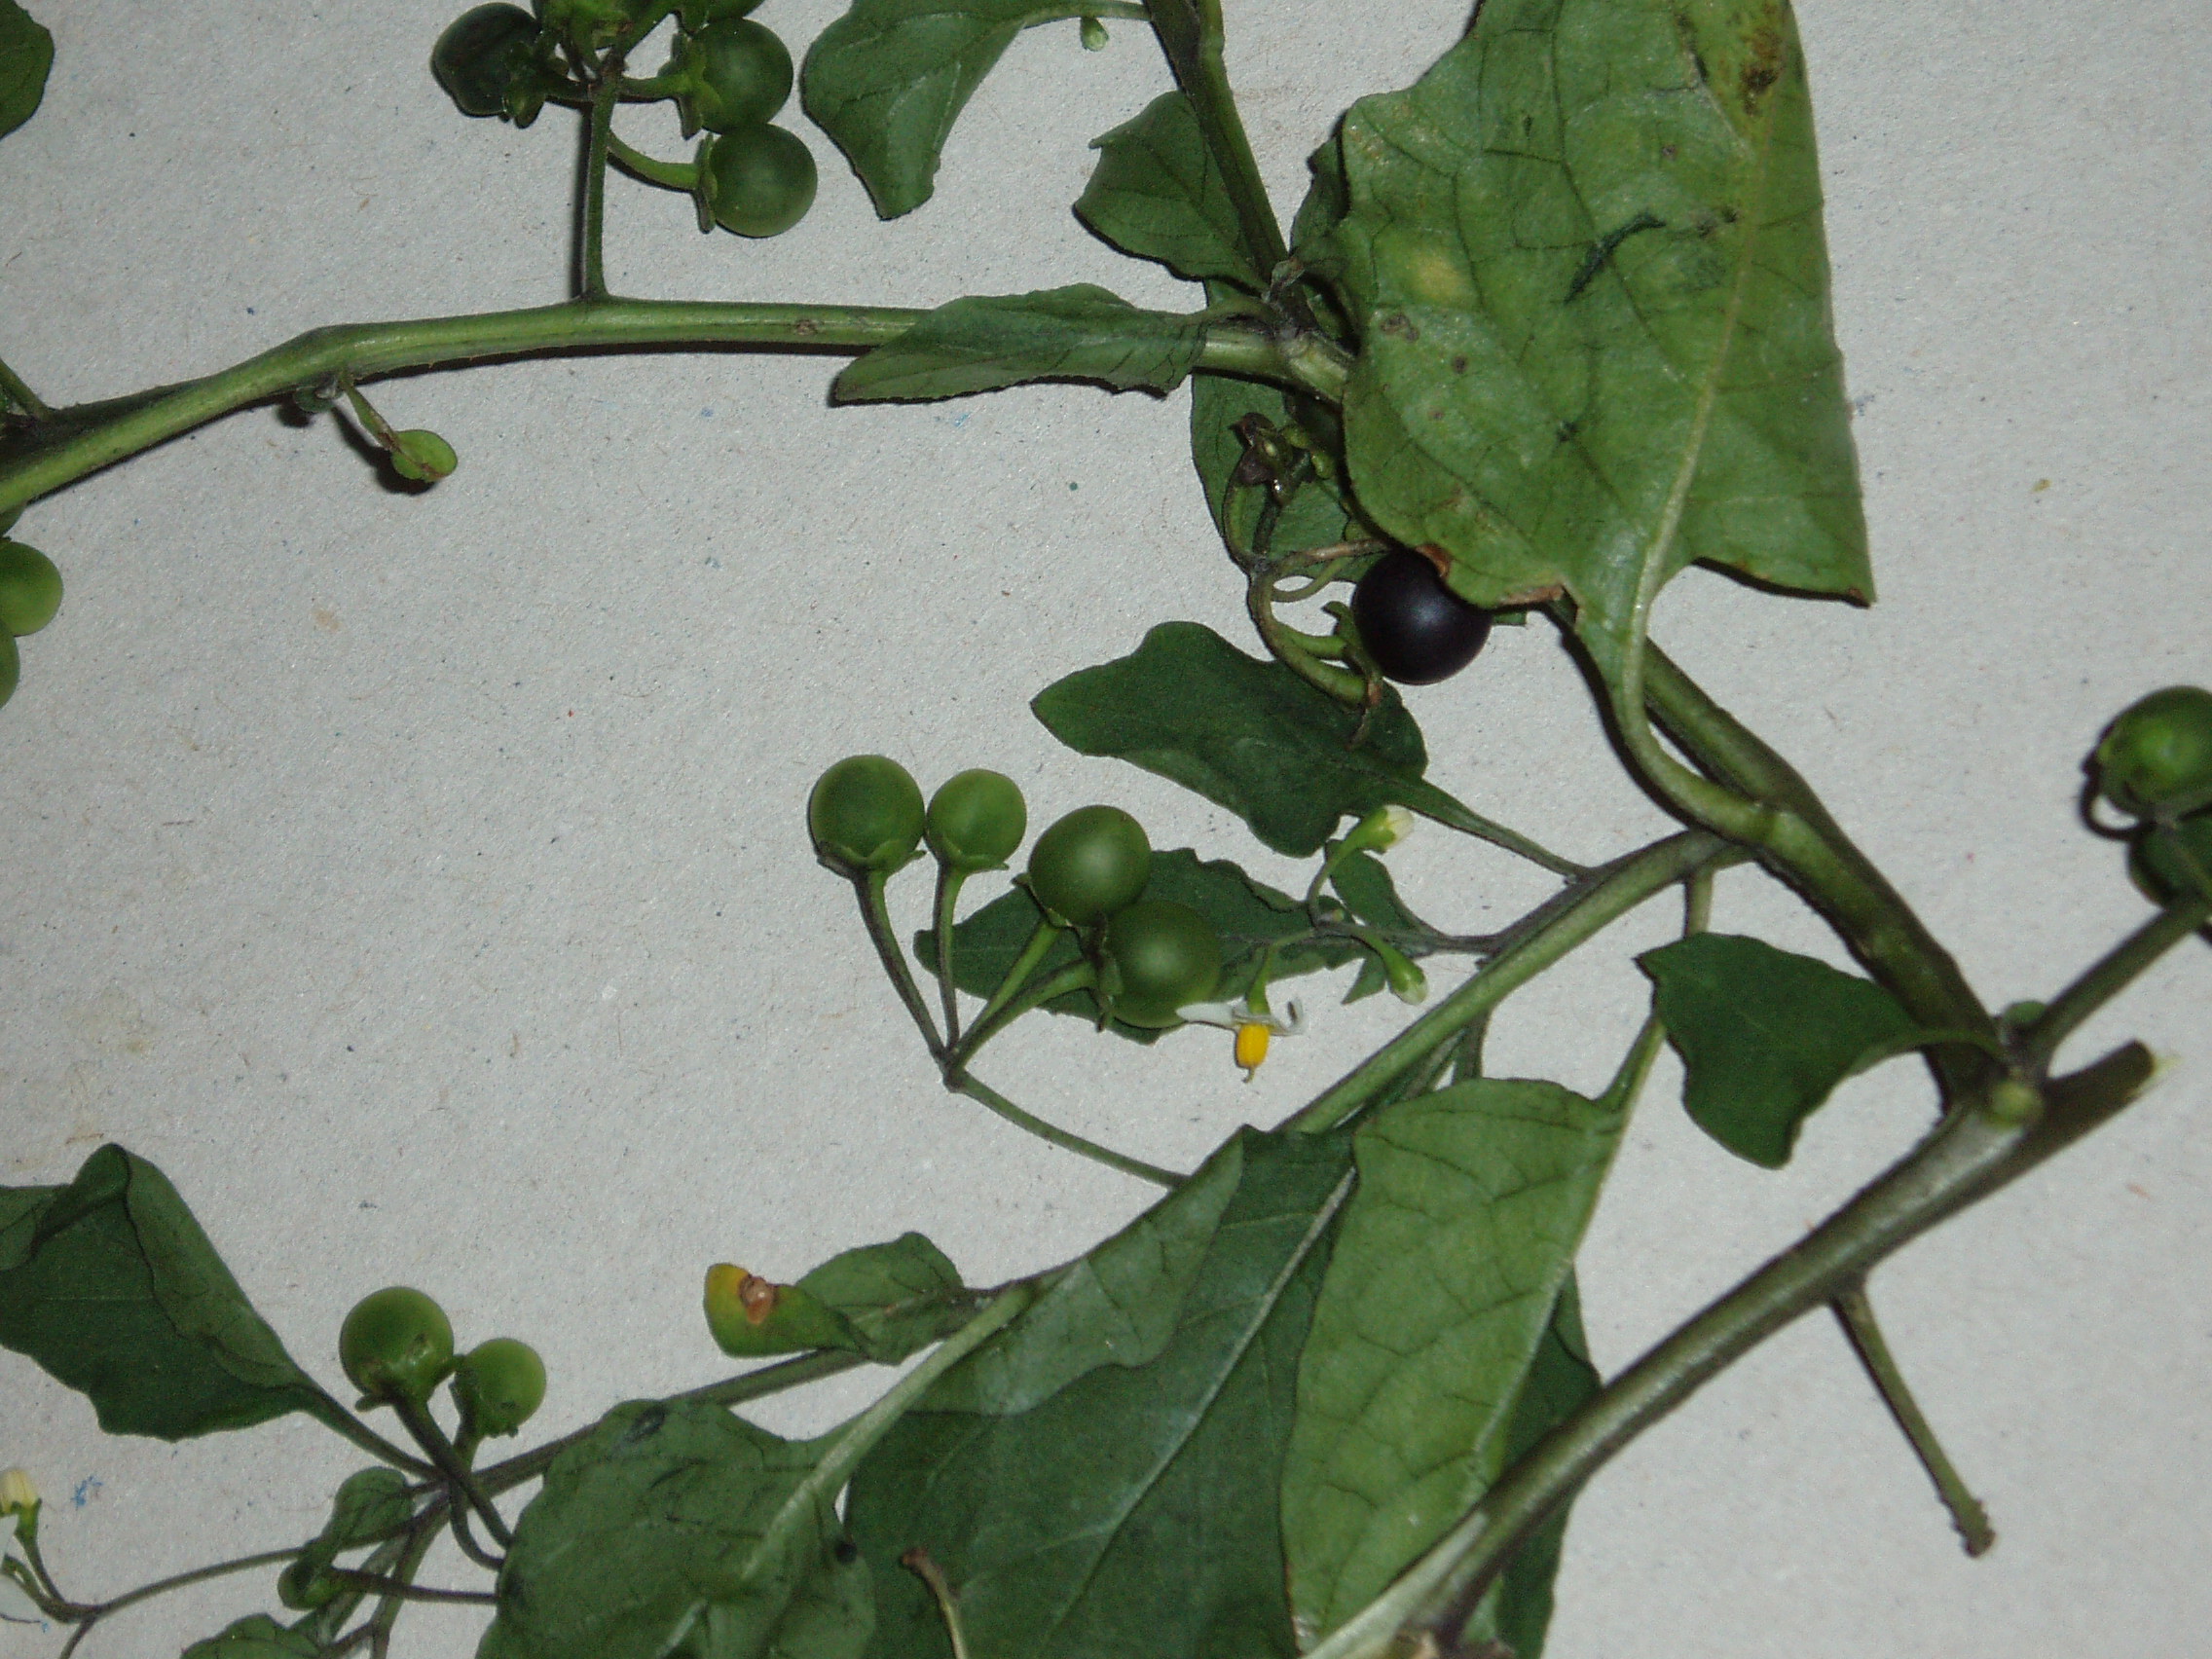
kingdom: Plantae
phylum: Tracheophyta
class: Magnoliopsida
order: Solanales
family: Solanaceae
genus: Solanum
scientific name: Solanum nigrum
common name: Black nightshade
